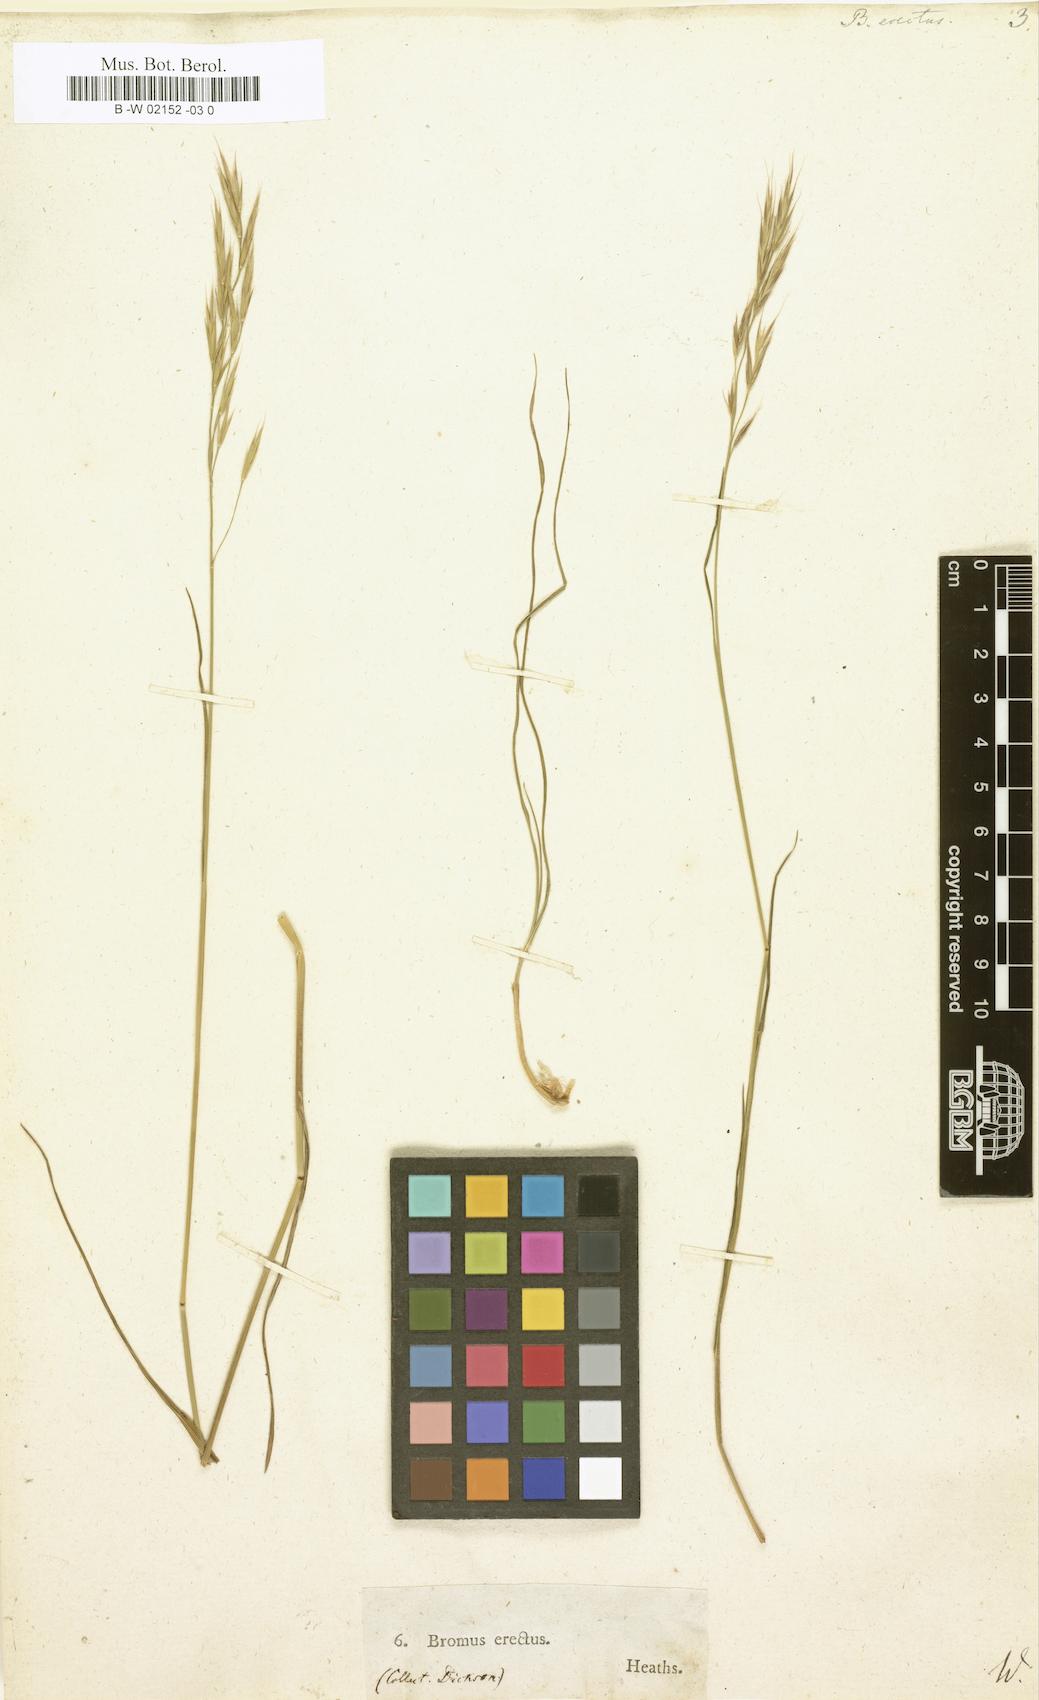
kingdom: Plantae
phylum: Tracheophyta
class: Liliopsida
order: Poales
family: Poaceae
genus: Bromus
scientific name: Bromus erectus
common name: Erect brome
